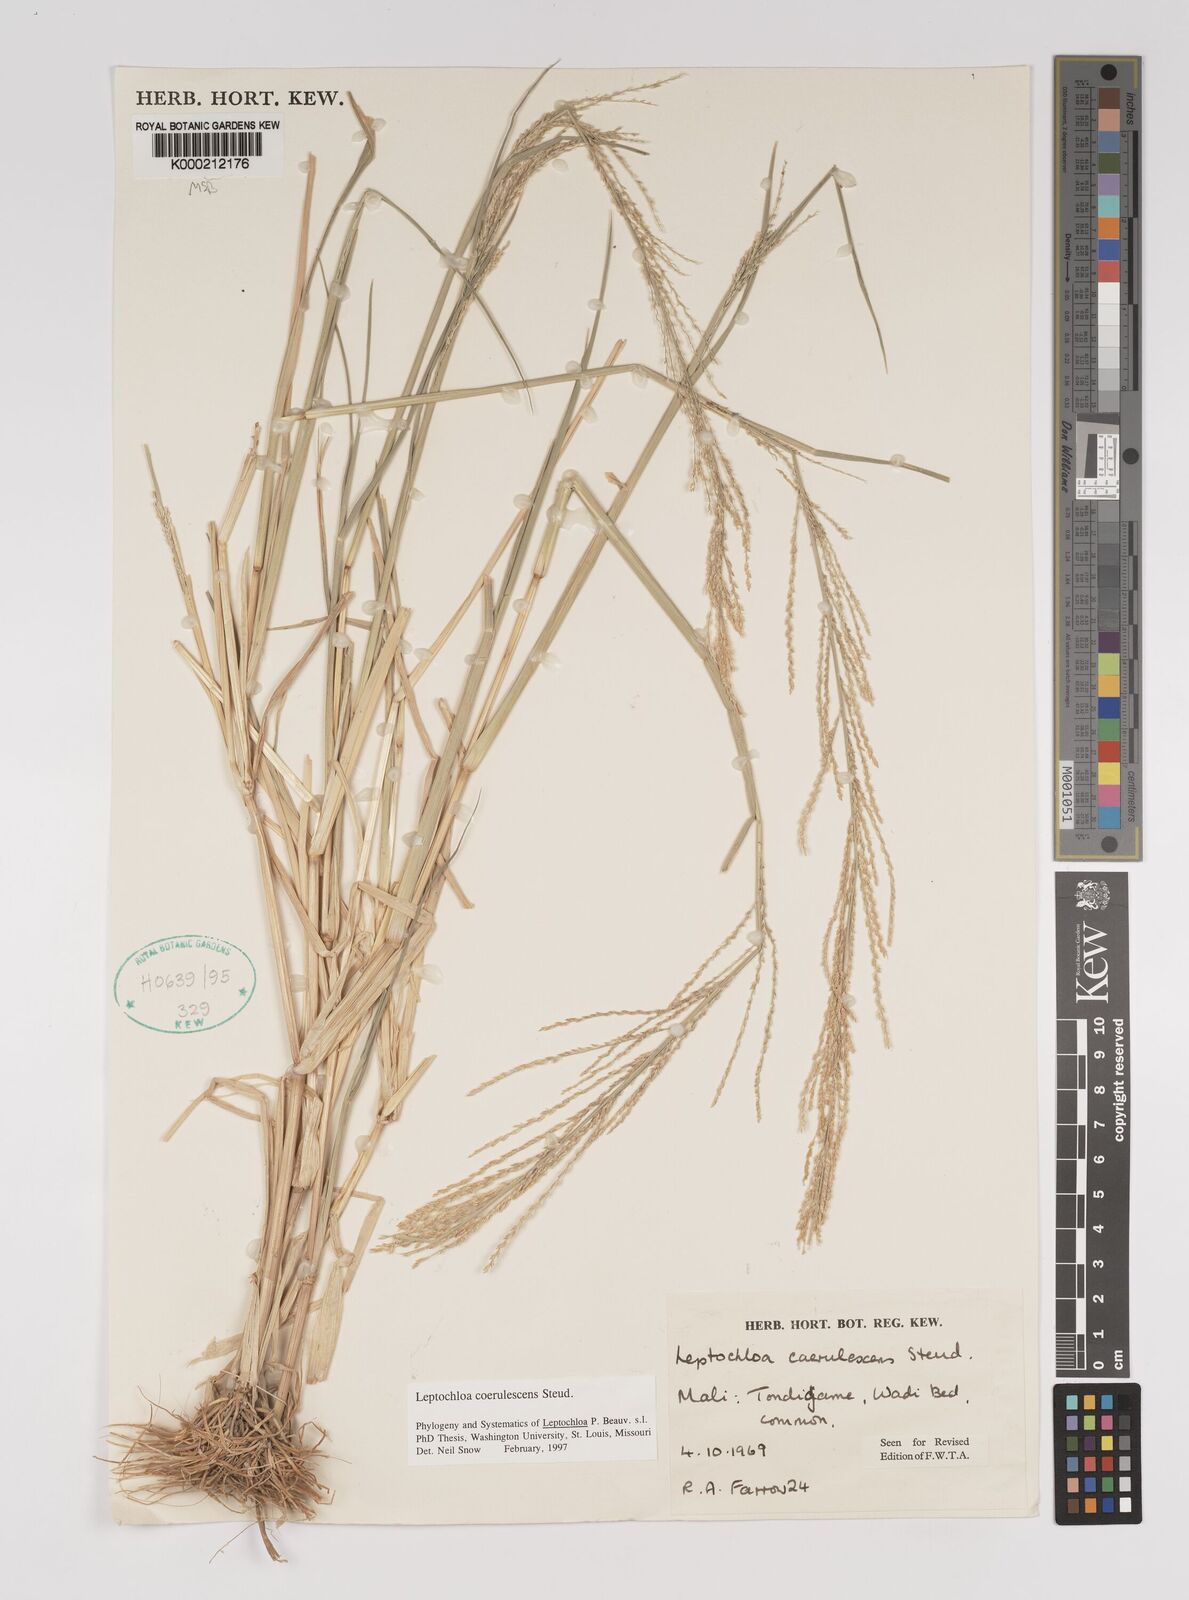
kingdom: Plantae
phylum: Tracheophyta
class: Liliopsida
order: Poales
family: Poaceae
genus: Leptochloa
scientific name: Leptochloa
